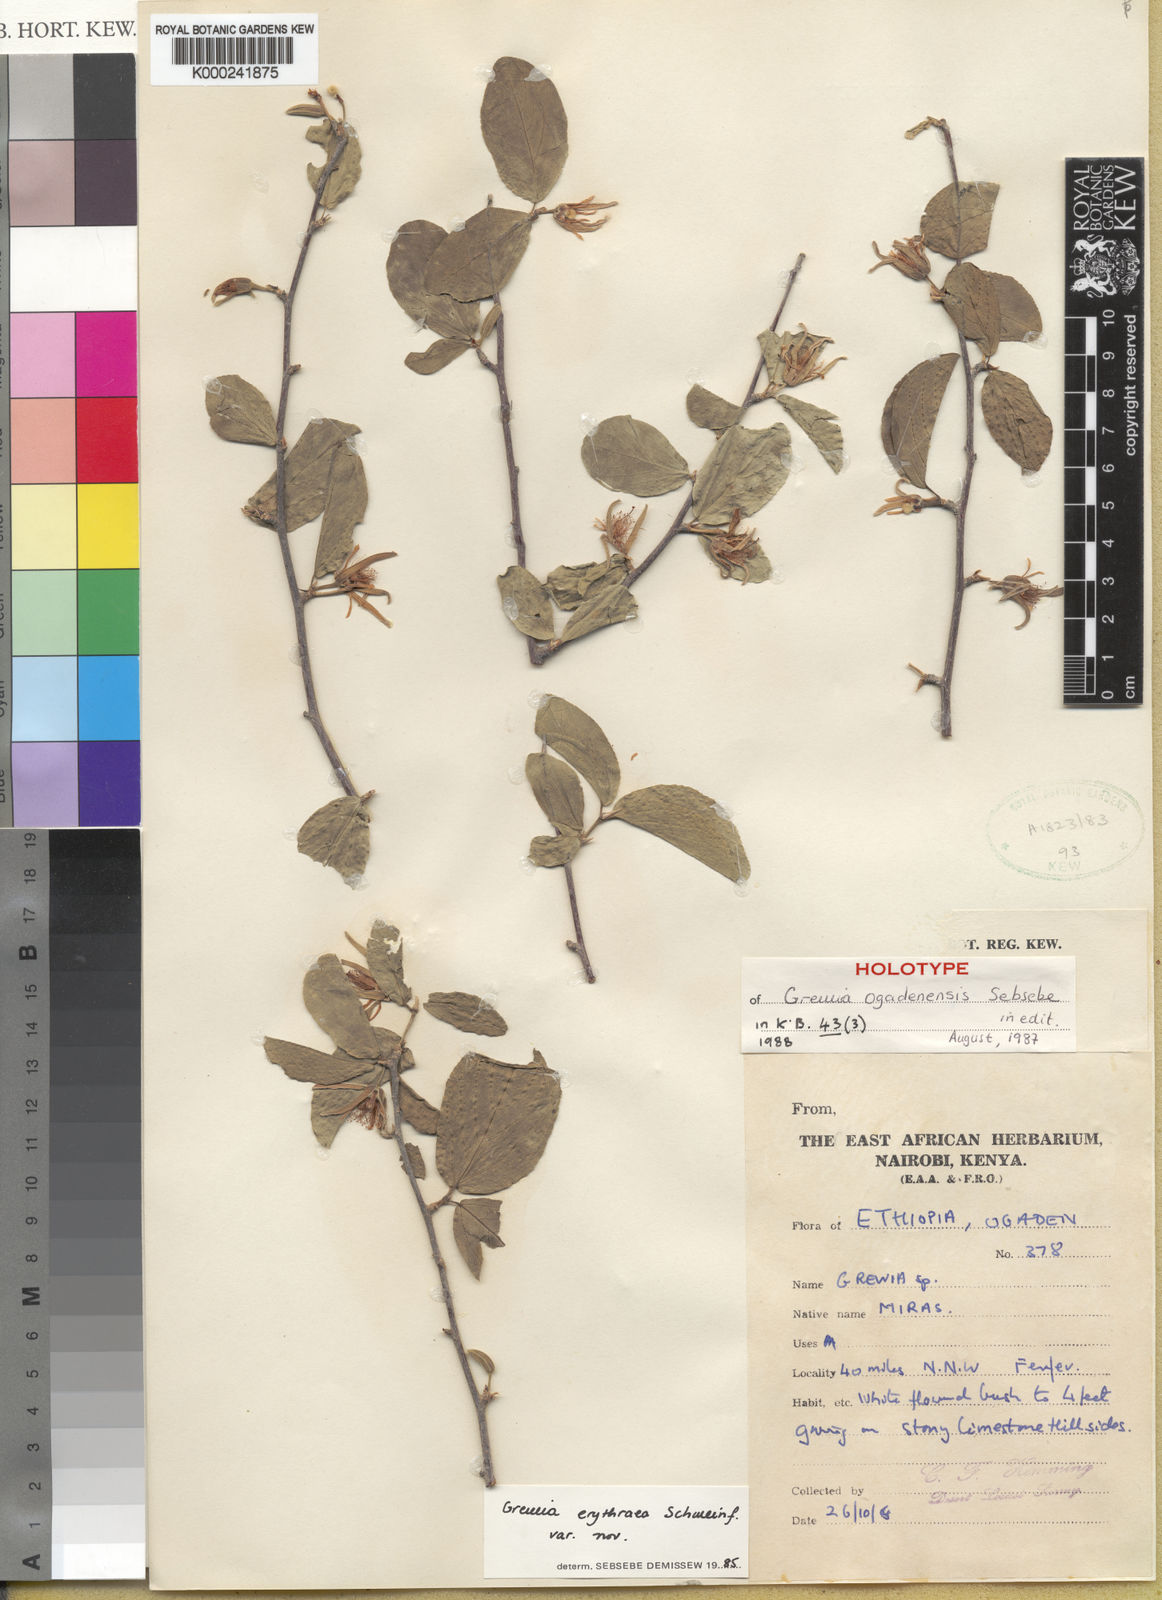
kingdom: Plantae
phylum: Tracheophyta
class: Magnoliopsida
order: Malvales
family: Malvaceae
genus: Grewia
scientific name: Grewia ogadenensis
